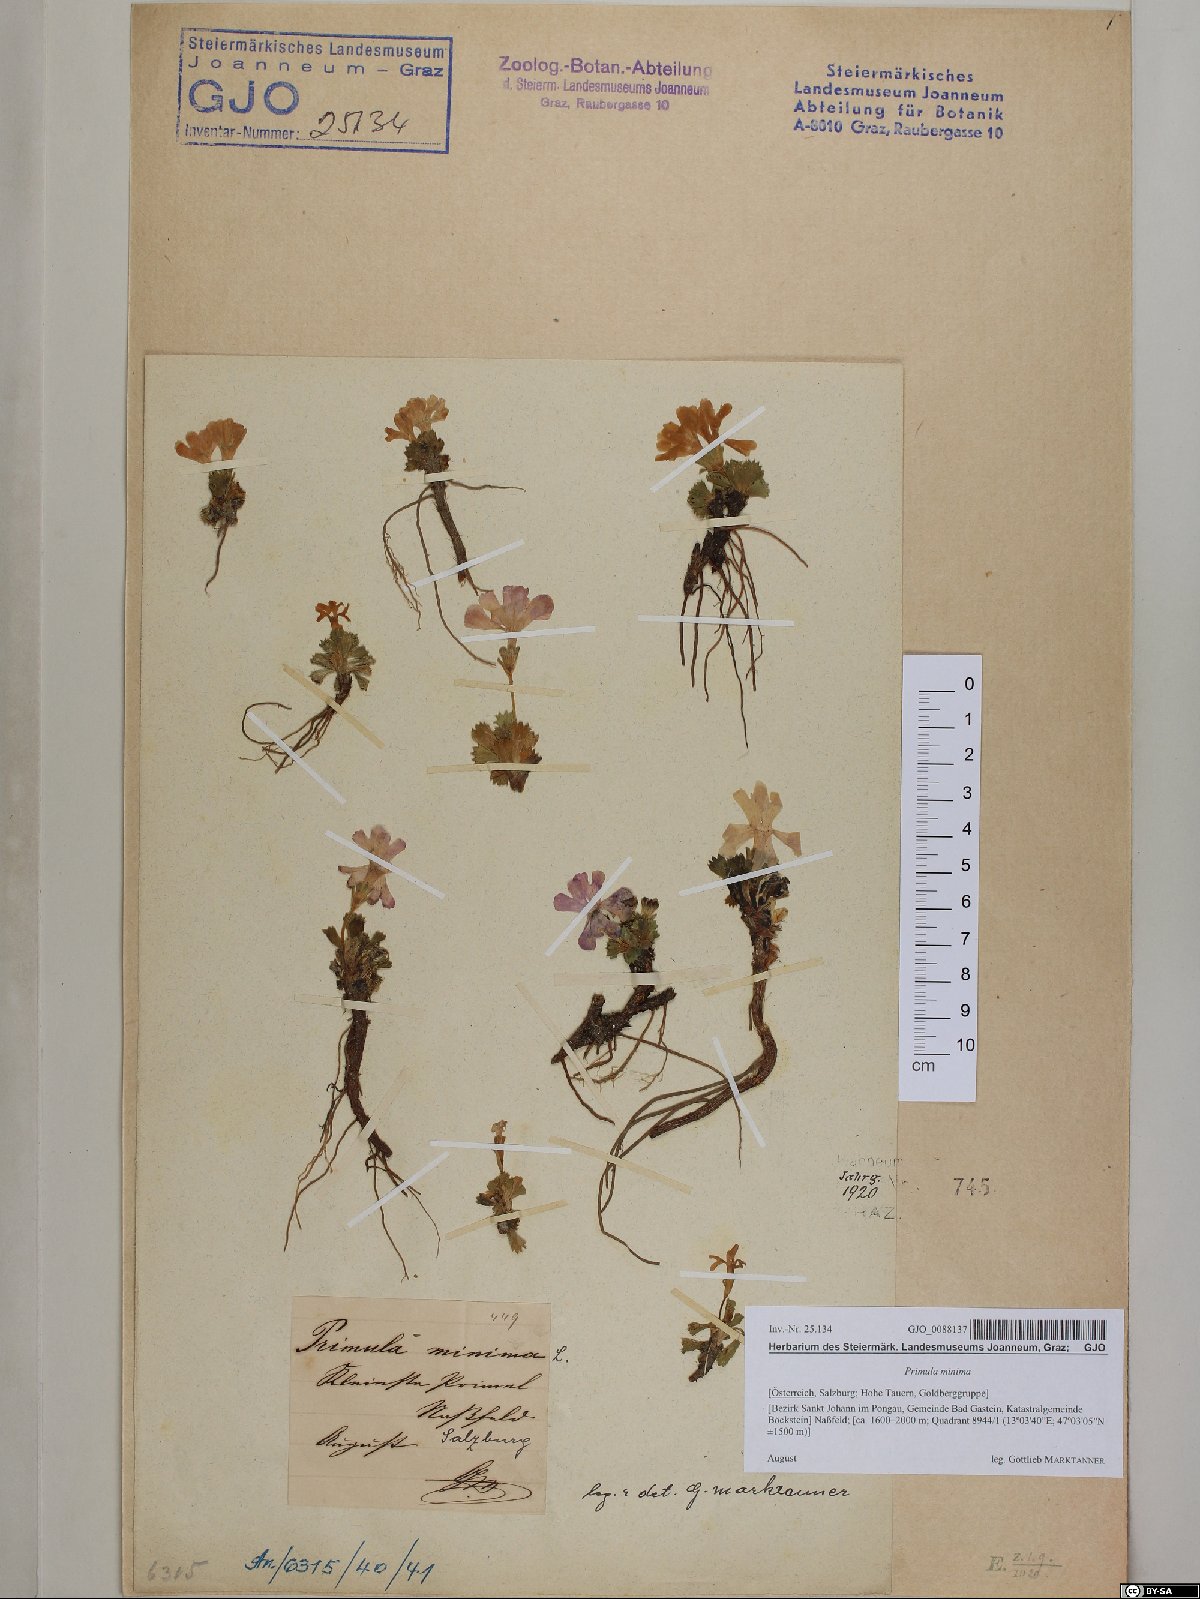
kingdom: Plantae
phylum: Tracheophyta
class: Magnoliopsida
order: Ericales
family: Primulaceae
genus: Primula
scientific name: Primula minima
